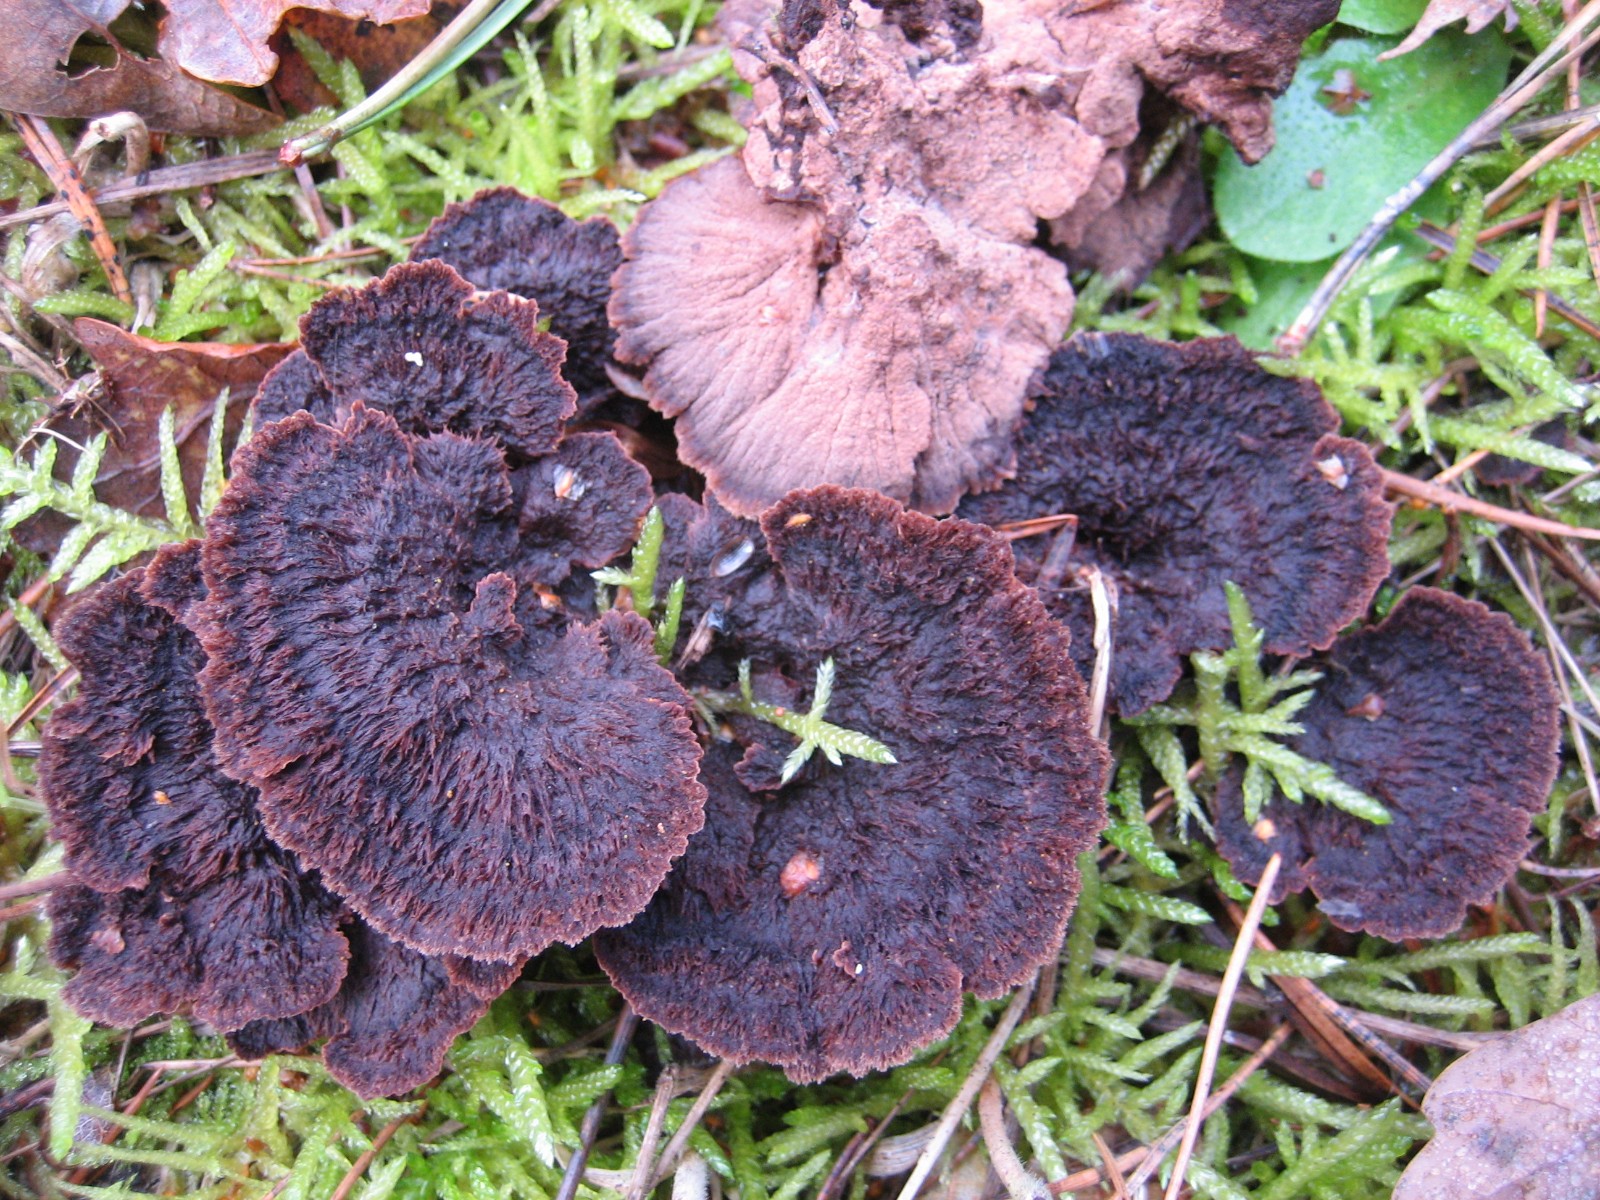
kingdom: Fungi
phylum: Basidiomycota
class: Agaricomycetes
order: Thelephorales
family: Thelephoraceae
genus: Thelephora
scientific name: Thelephora terrestris
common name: fliget frynsesvamp
